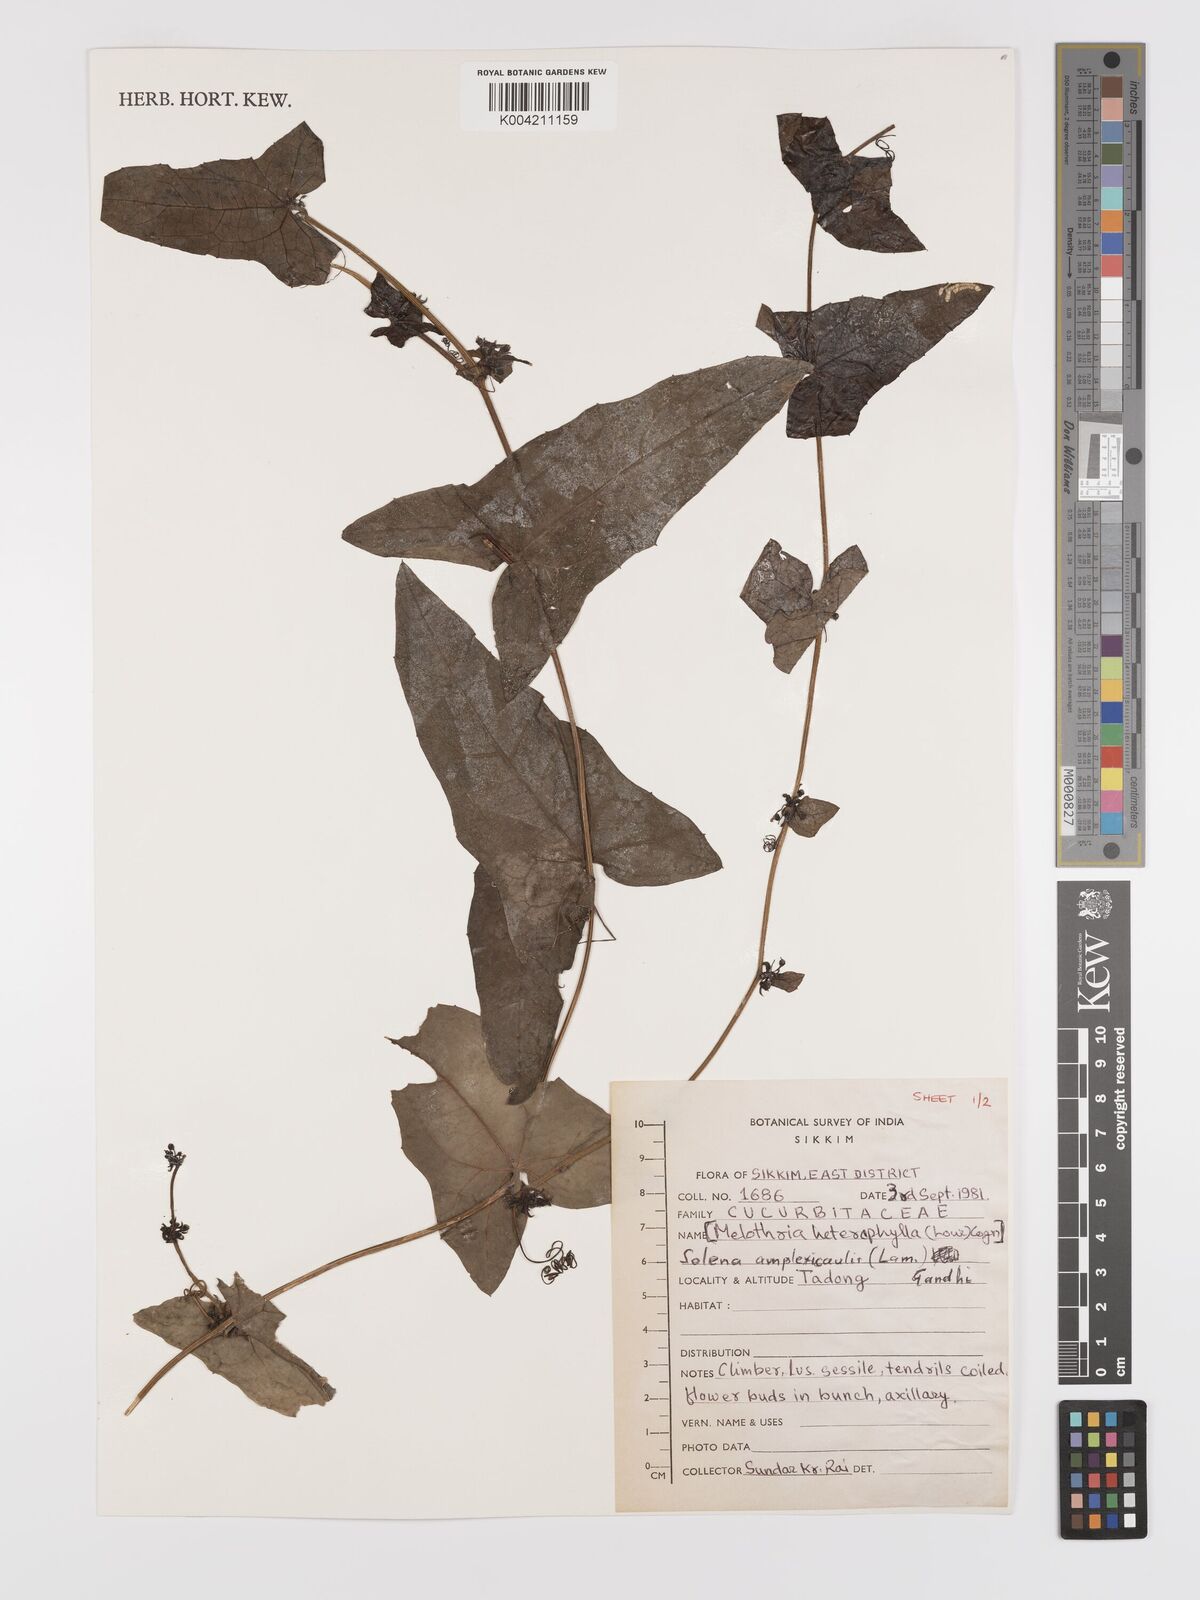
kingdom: Plantae
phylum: Tracheophyta
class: Magnoliopsida
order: Cucurbitales
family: Cucurbitaceae
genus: Solena
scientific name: Solena amplexicaulis
